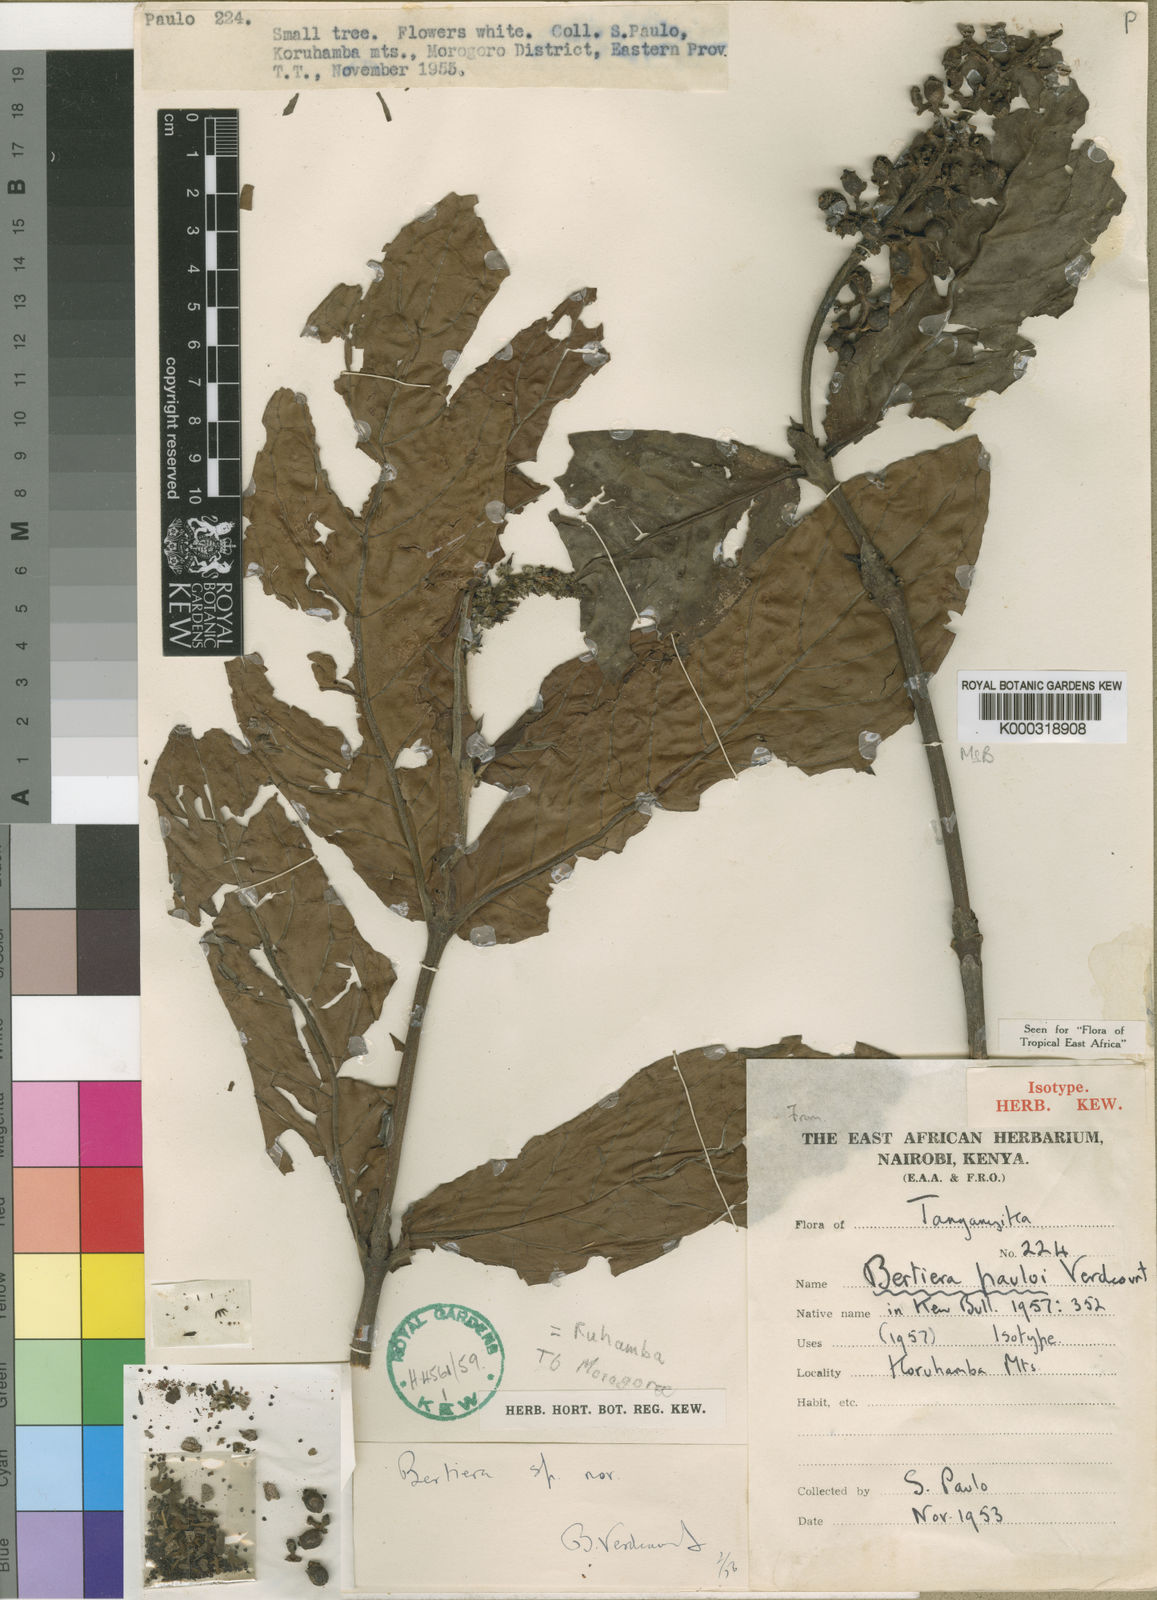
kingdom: Plantae
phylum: Tracheophyta
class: Magnoliopsida
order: Gentianales
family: Rubiaceae
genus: Bertiera
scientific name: Bertiera pauloi
